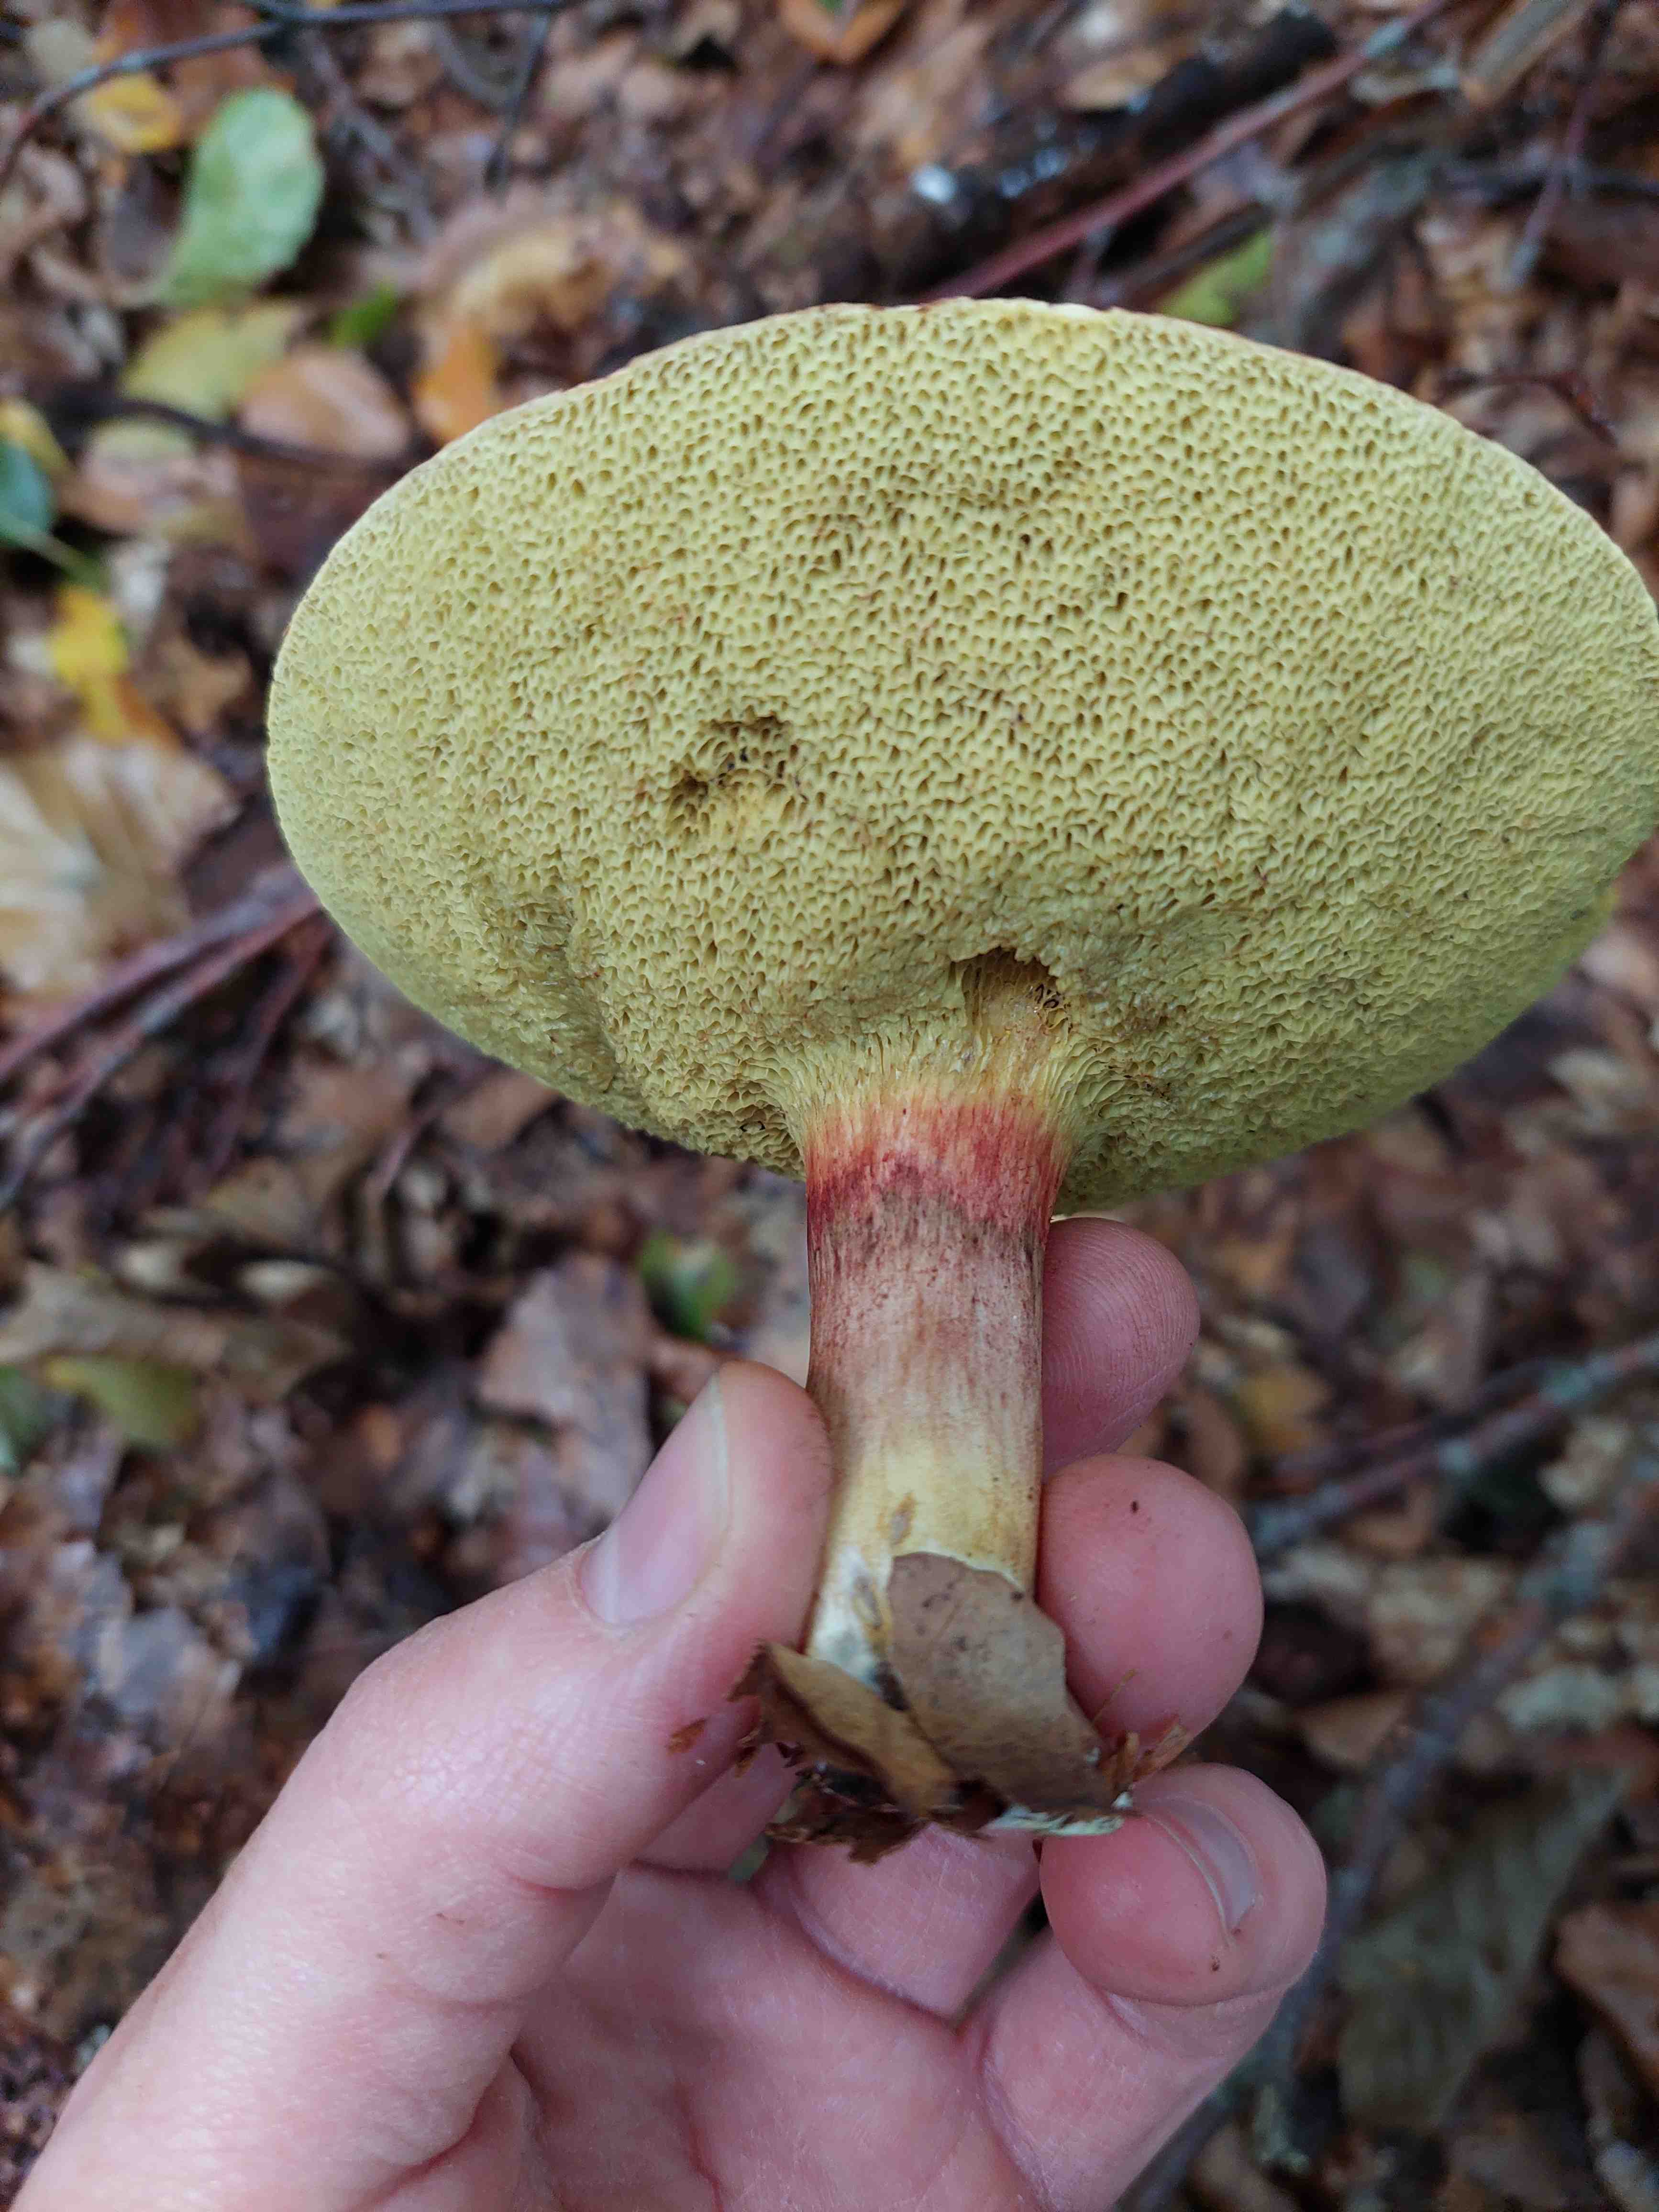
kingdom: Fungi
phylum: Basidiomycota
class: Agaricomycetes
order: Boletales
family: Boletaceae
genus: Xerocomellus
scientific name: Xerocomellus pruinatus
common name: dugget rørhat
